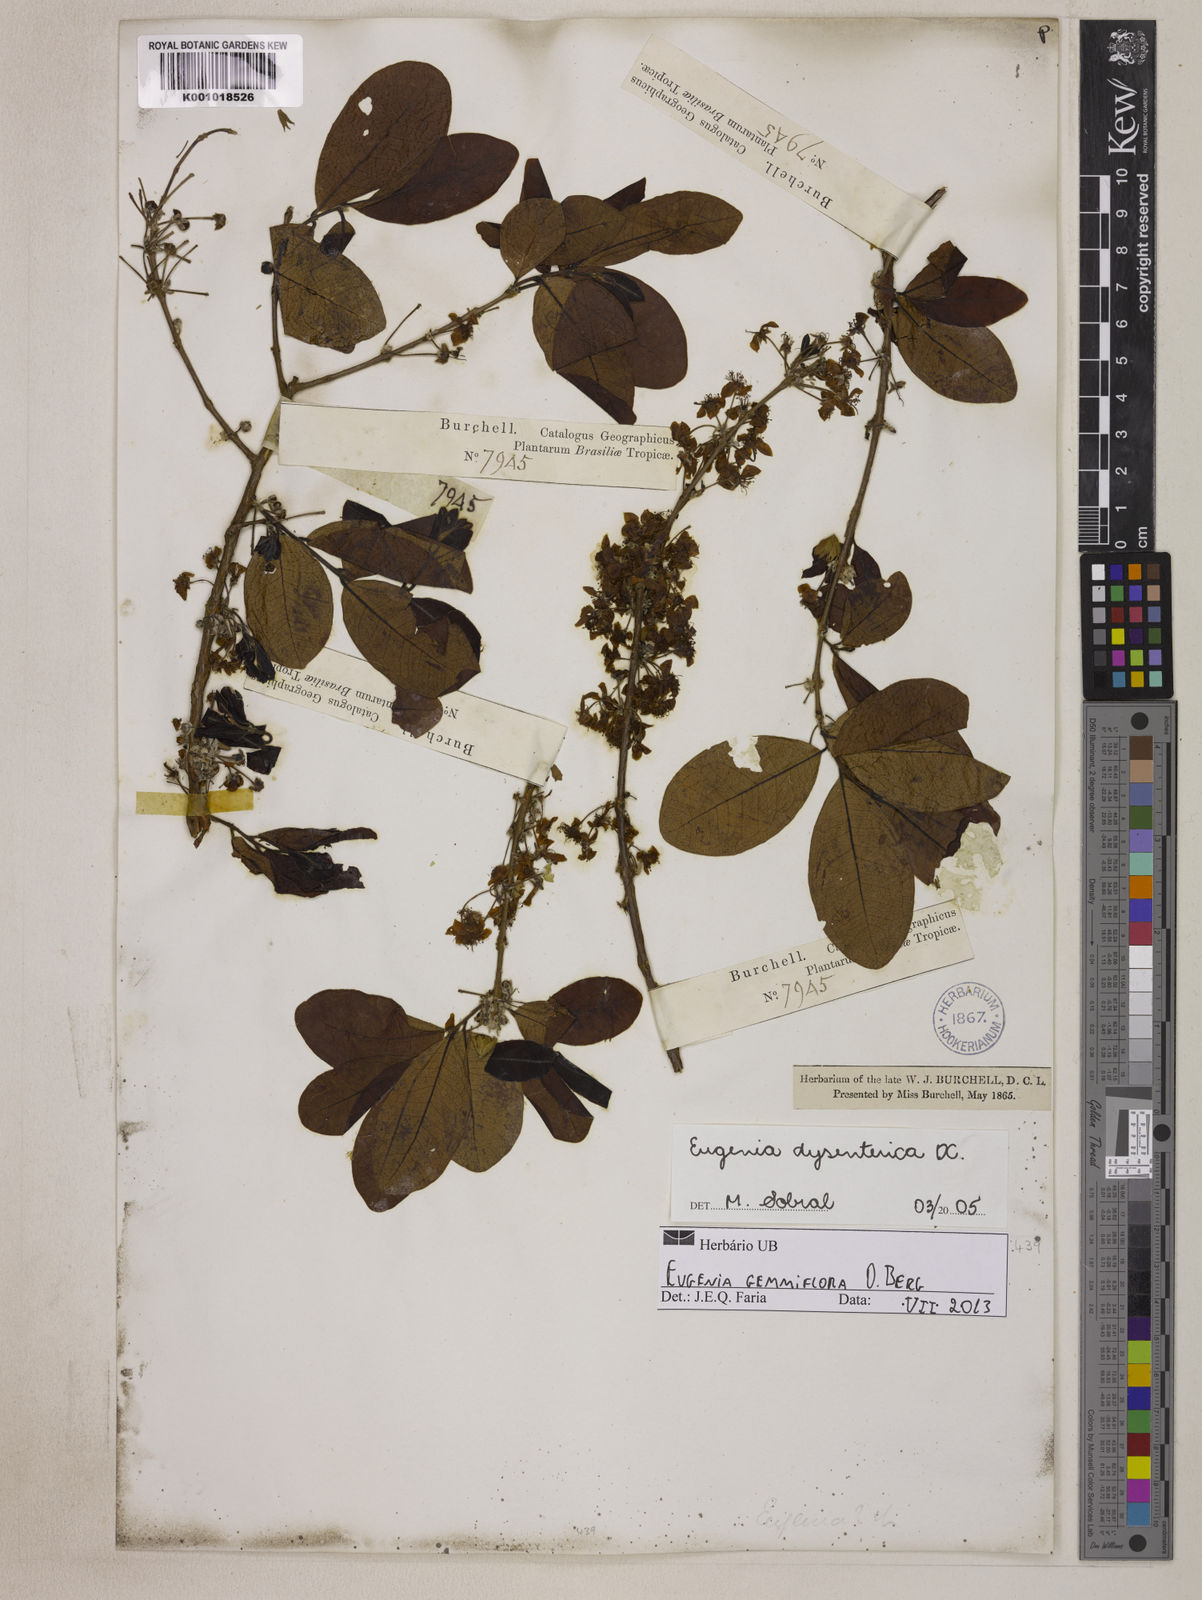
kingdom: Plantae
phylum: Tracheophyta
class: Magnoliopsida
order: Myrtales
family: Myrtaceae
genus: Eugenia
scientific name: Eugenia dysenterica
